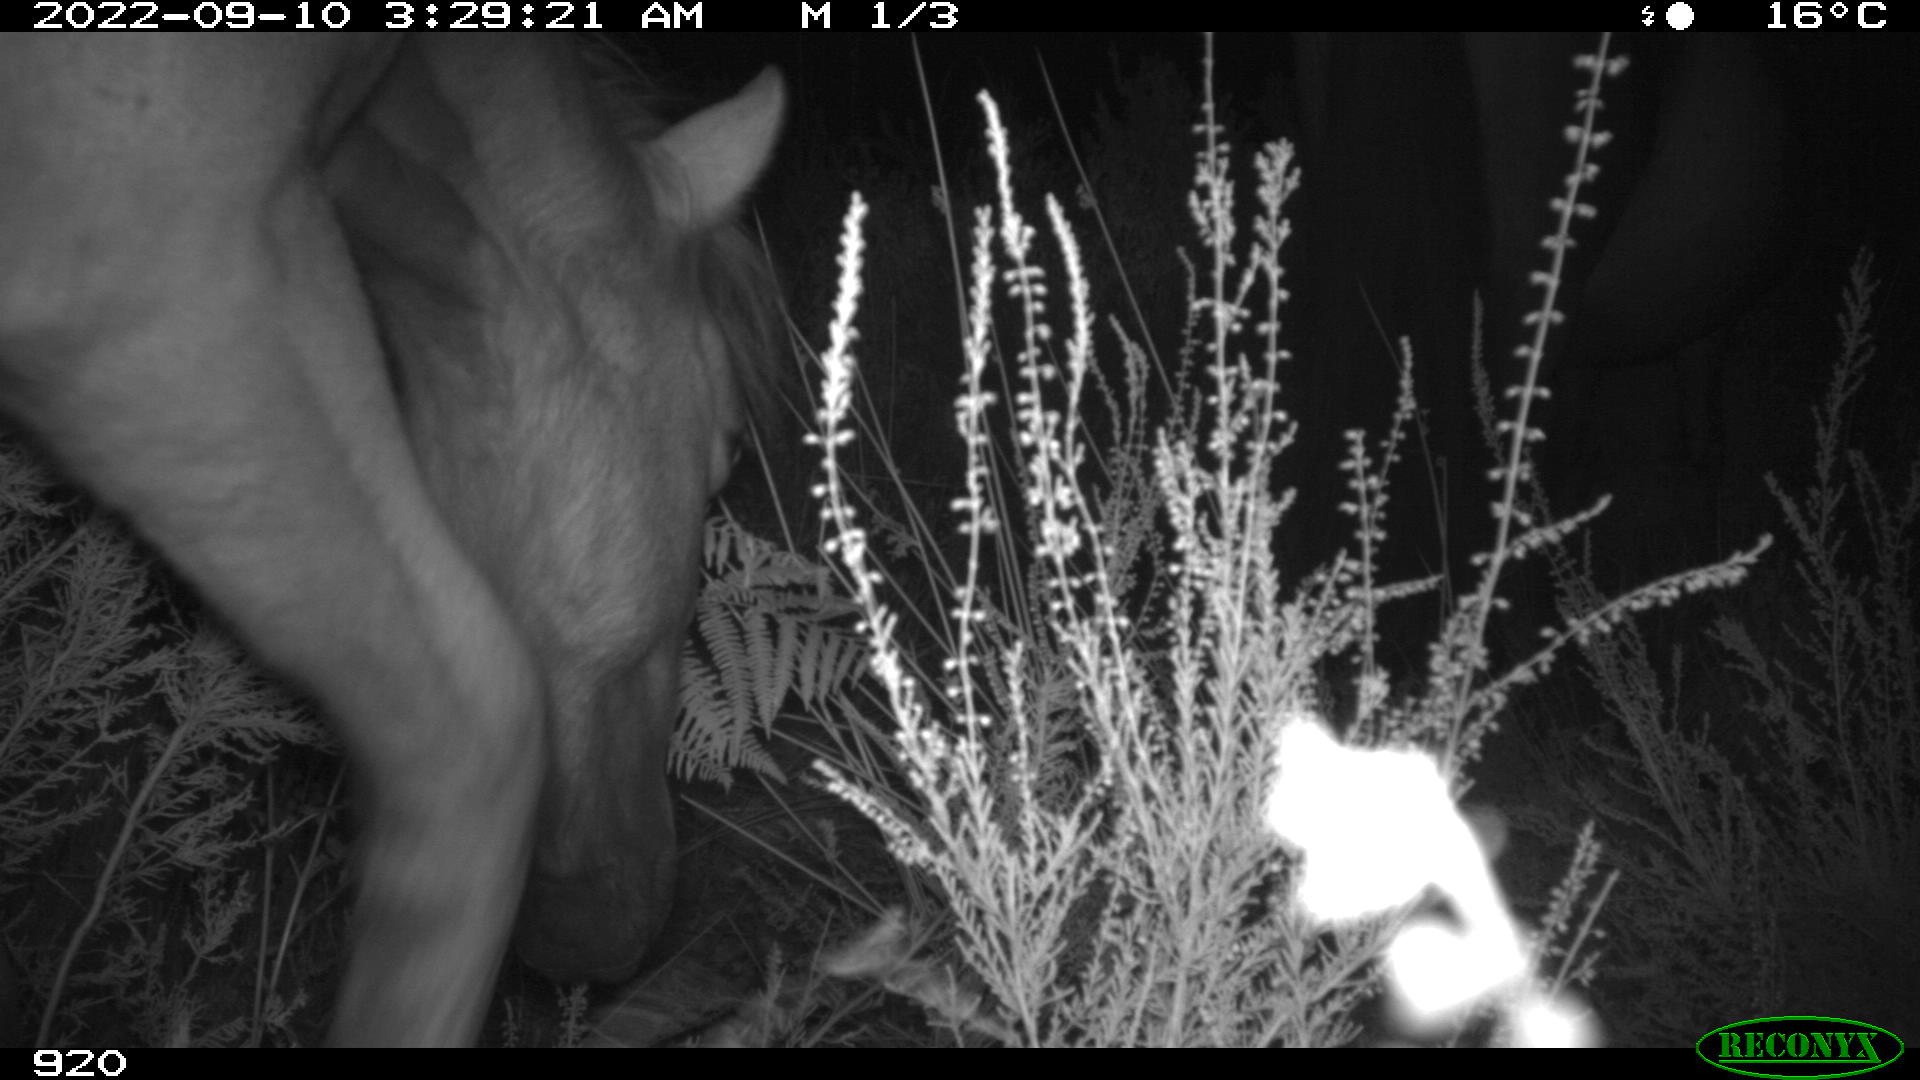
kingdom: Animalia
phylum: Chordata
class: Mammalia
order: Perissodactyla
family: Equidae
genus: Equus
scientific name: Equus caballus
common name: Horse
